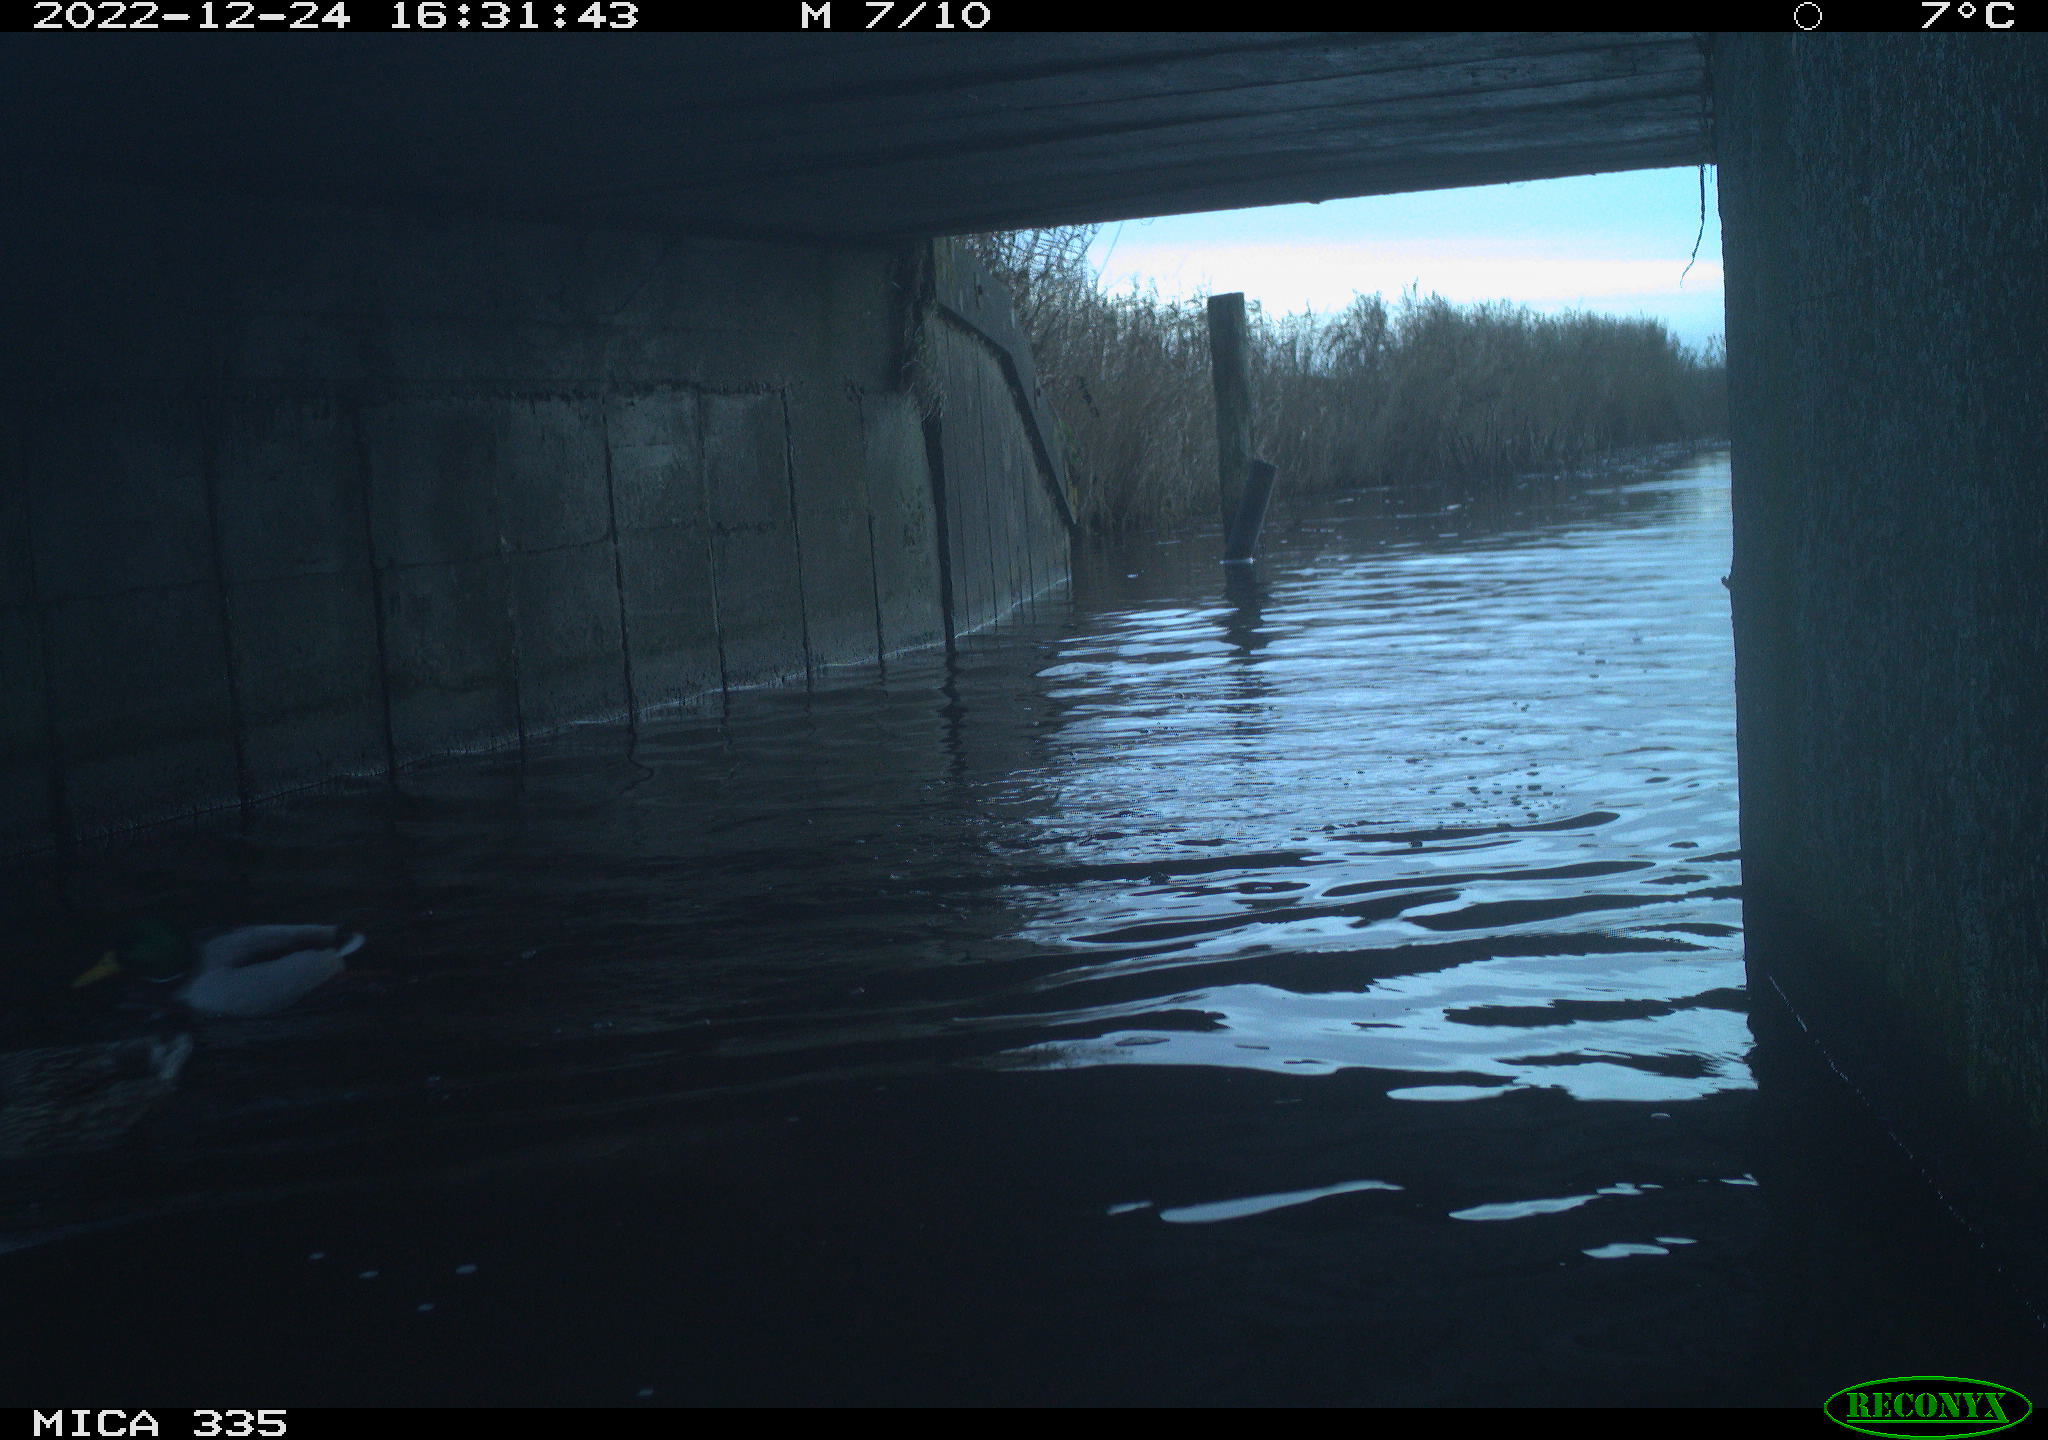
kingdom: Animalia
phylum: Chordata
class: Aves
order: Anseriformes
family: Anatidae
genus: Anas
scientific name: Anas
